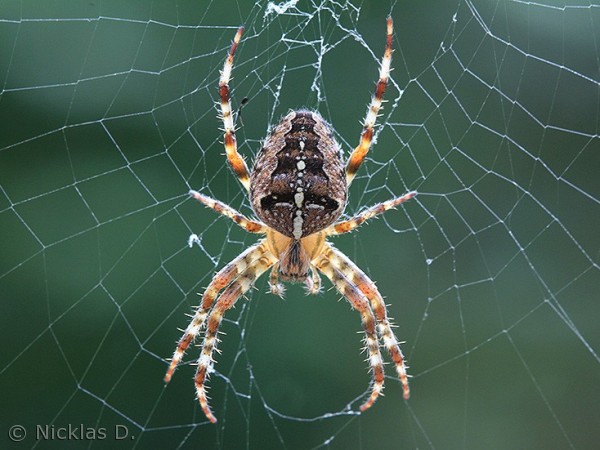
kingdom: Animalia
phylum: Arthropoda
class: Arachnida
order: Araneae
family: Araneidae
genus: Araneus
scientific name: Araneus diadematus
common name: Korsedderkop
